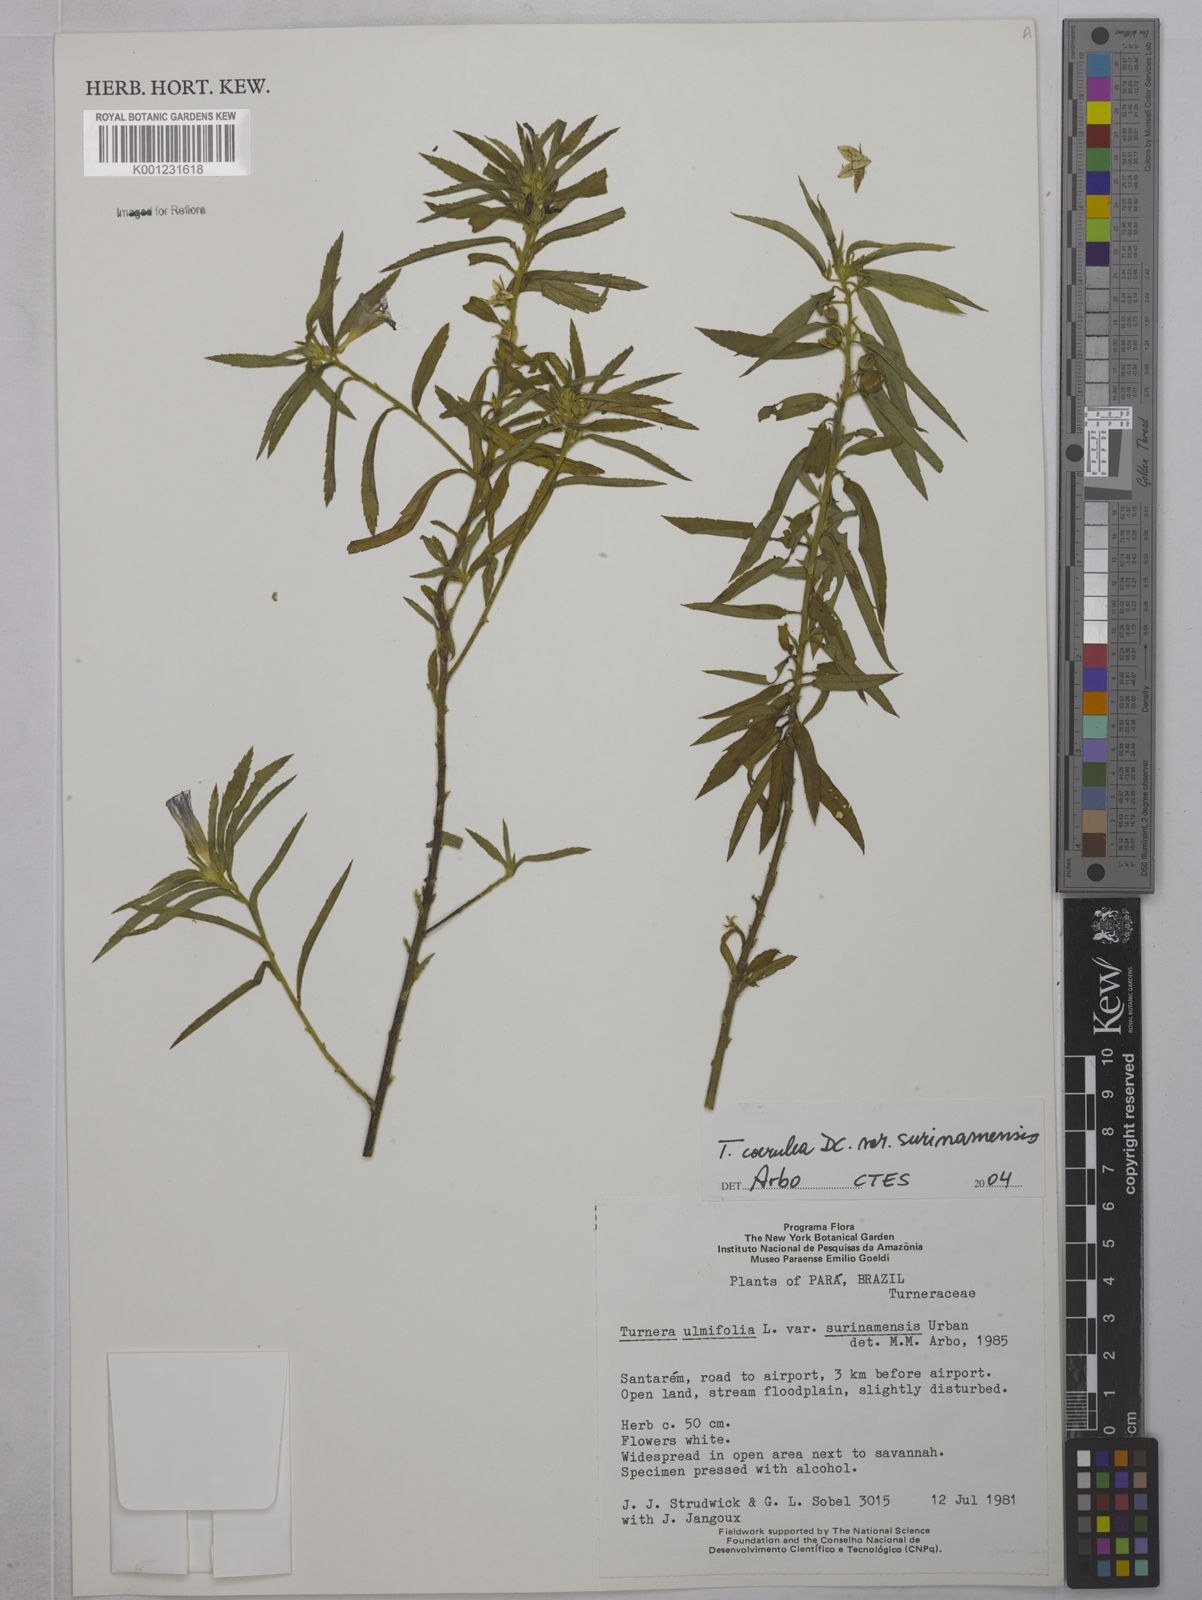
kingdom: Plantae
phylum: Tracheophyta
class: Magnoliopsida
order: Malpighiales
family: Turneraceae
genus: Turnera
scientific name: Turnera coerulea
